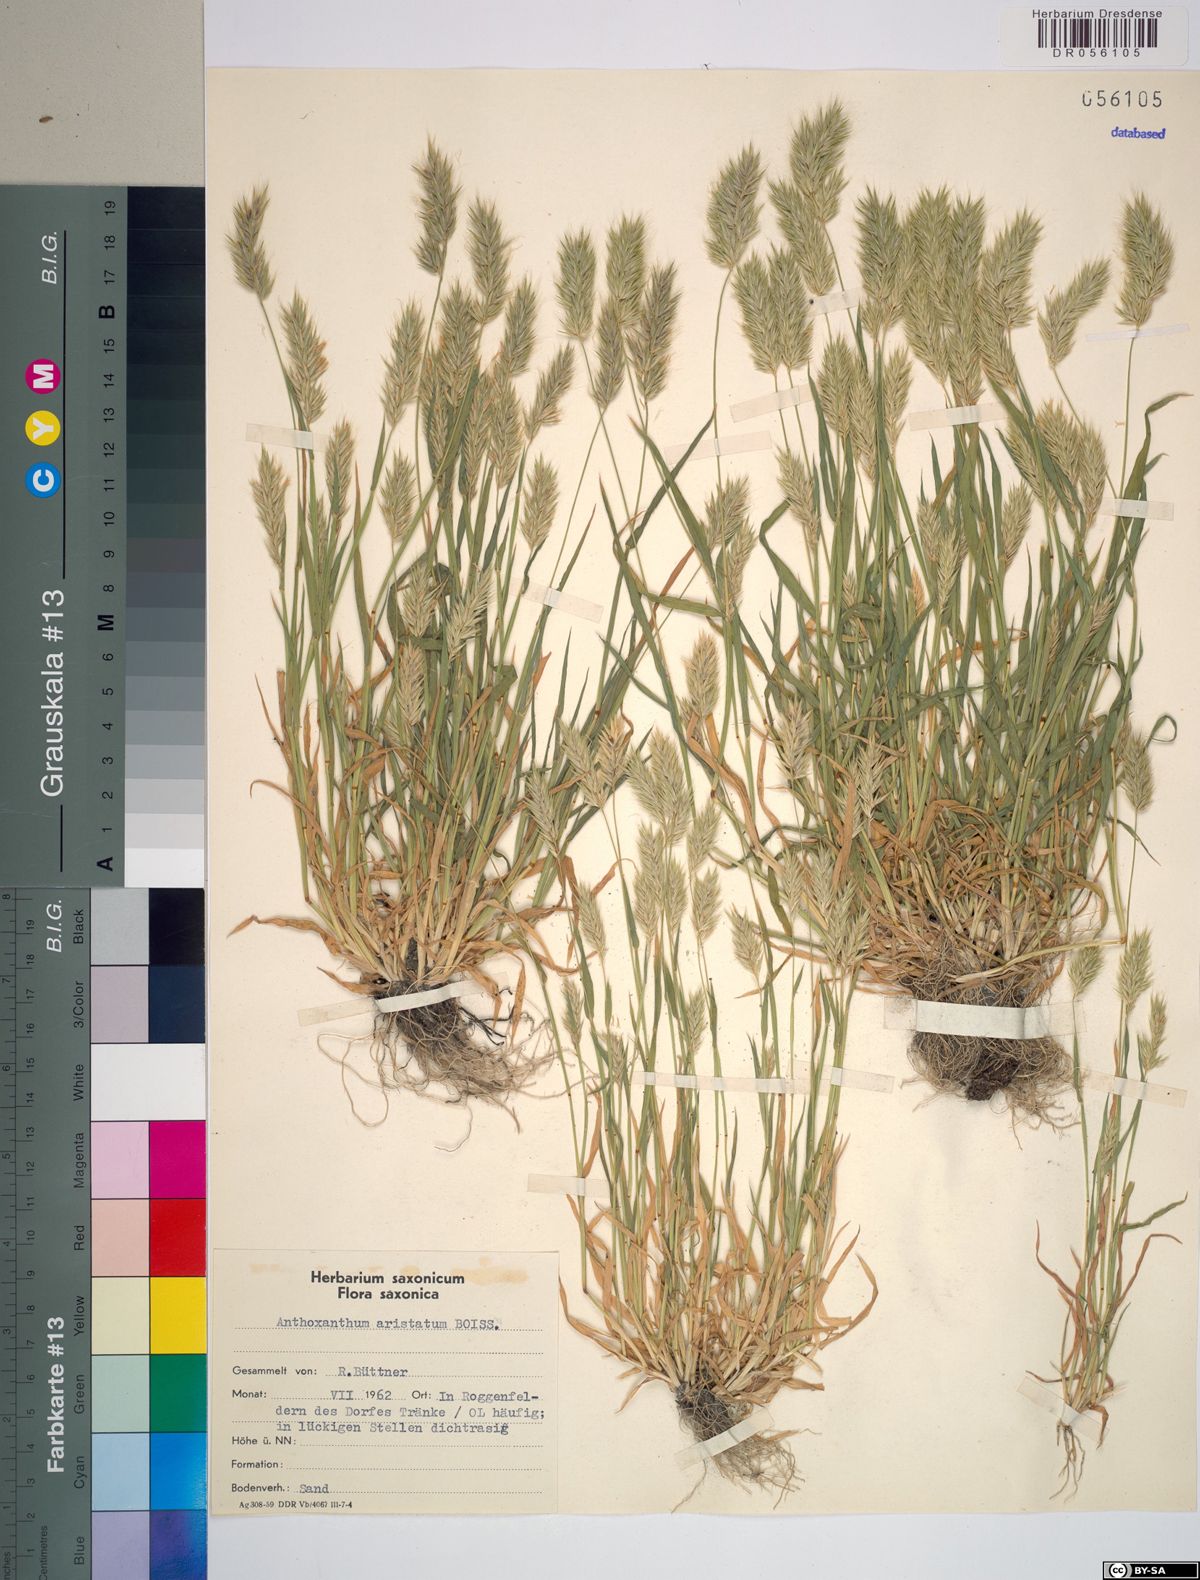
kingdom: Plantae
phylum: Tracheophyta
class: Liliopsida
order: Poales
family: Poaceae
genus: Anthoxanthum
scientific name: Anthoxanthum aristatum
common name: Annual vernal-grass
